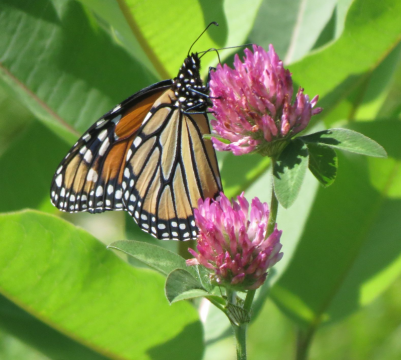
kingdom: Animalia
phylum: Arthropoda
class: Insecta
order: Lepidoptera
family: Nymphalidae
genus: Danaus
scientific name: Danaus plexippus
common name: Monarch
